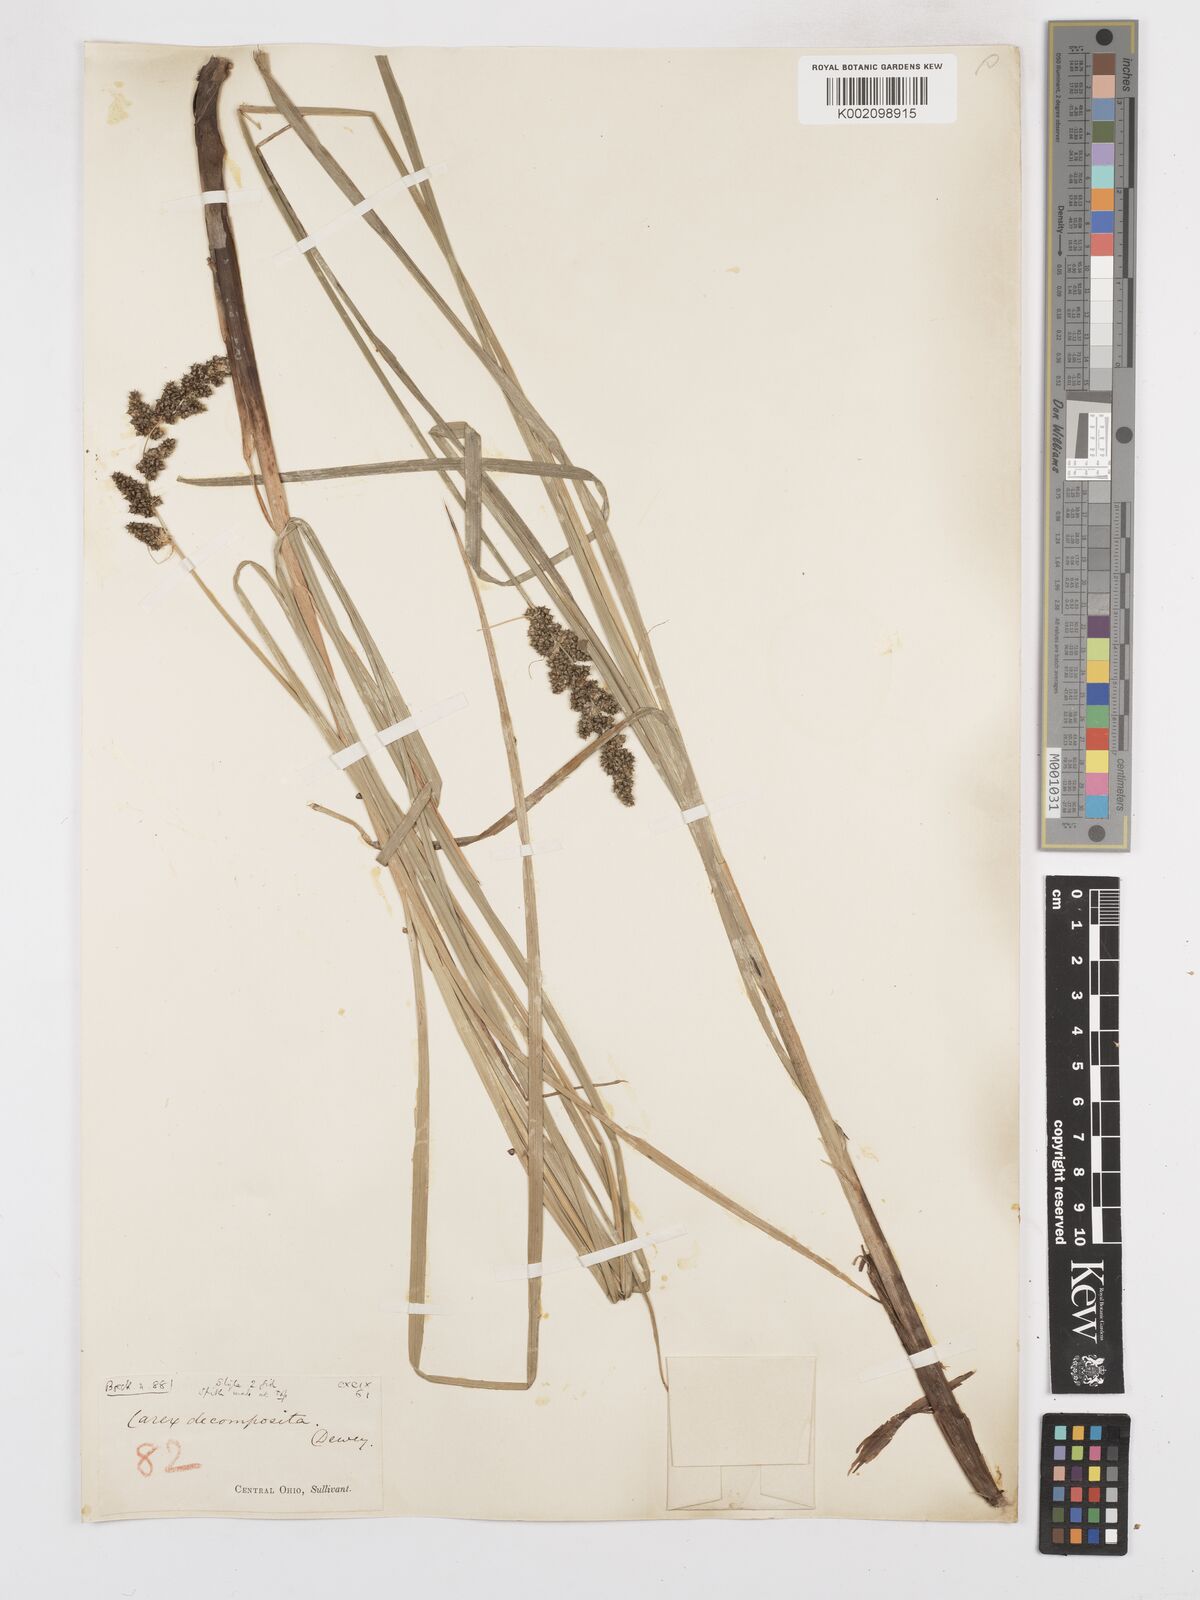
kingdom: Plantae
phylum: Tracheophyta
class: Liliopsida
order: Poales
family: Cyperaceae
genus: Carex
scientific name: Carex decomposita
